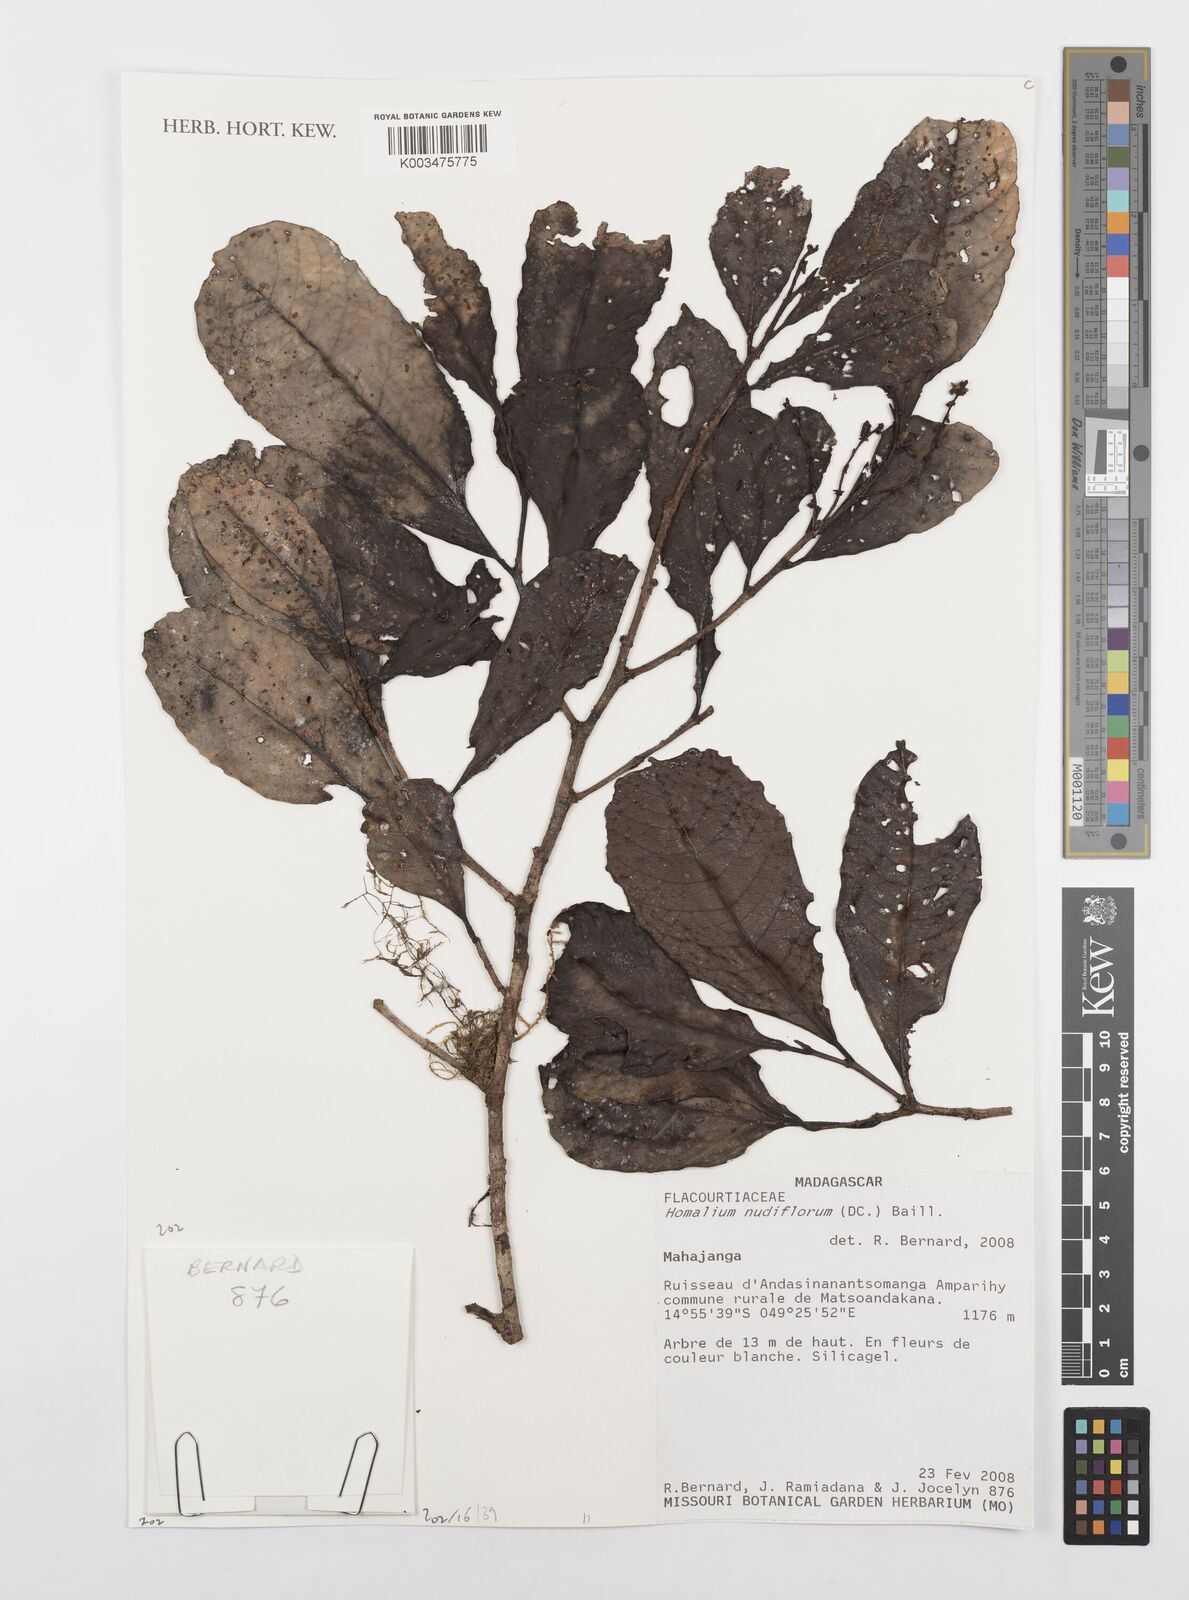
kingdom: Plantae
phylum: Tracheophyta
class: Magnoliopsida
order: Malpighiales
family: Salicaceae
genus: Homalium
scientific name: Homalium nudiflorum
